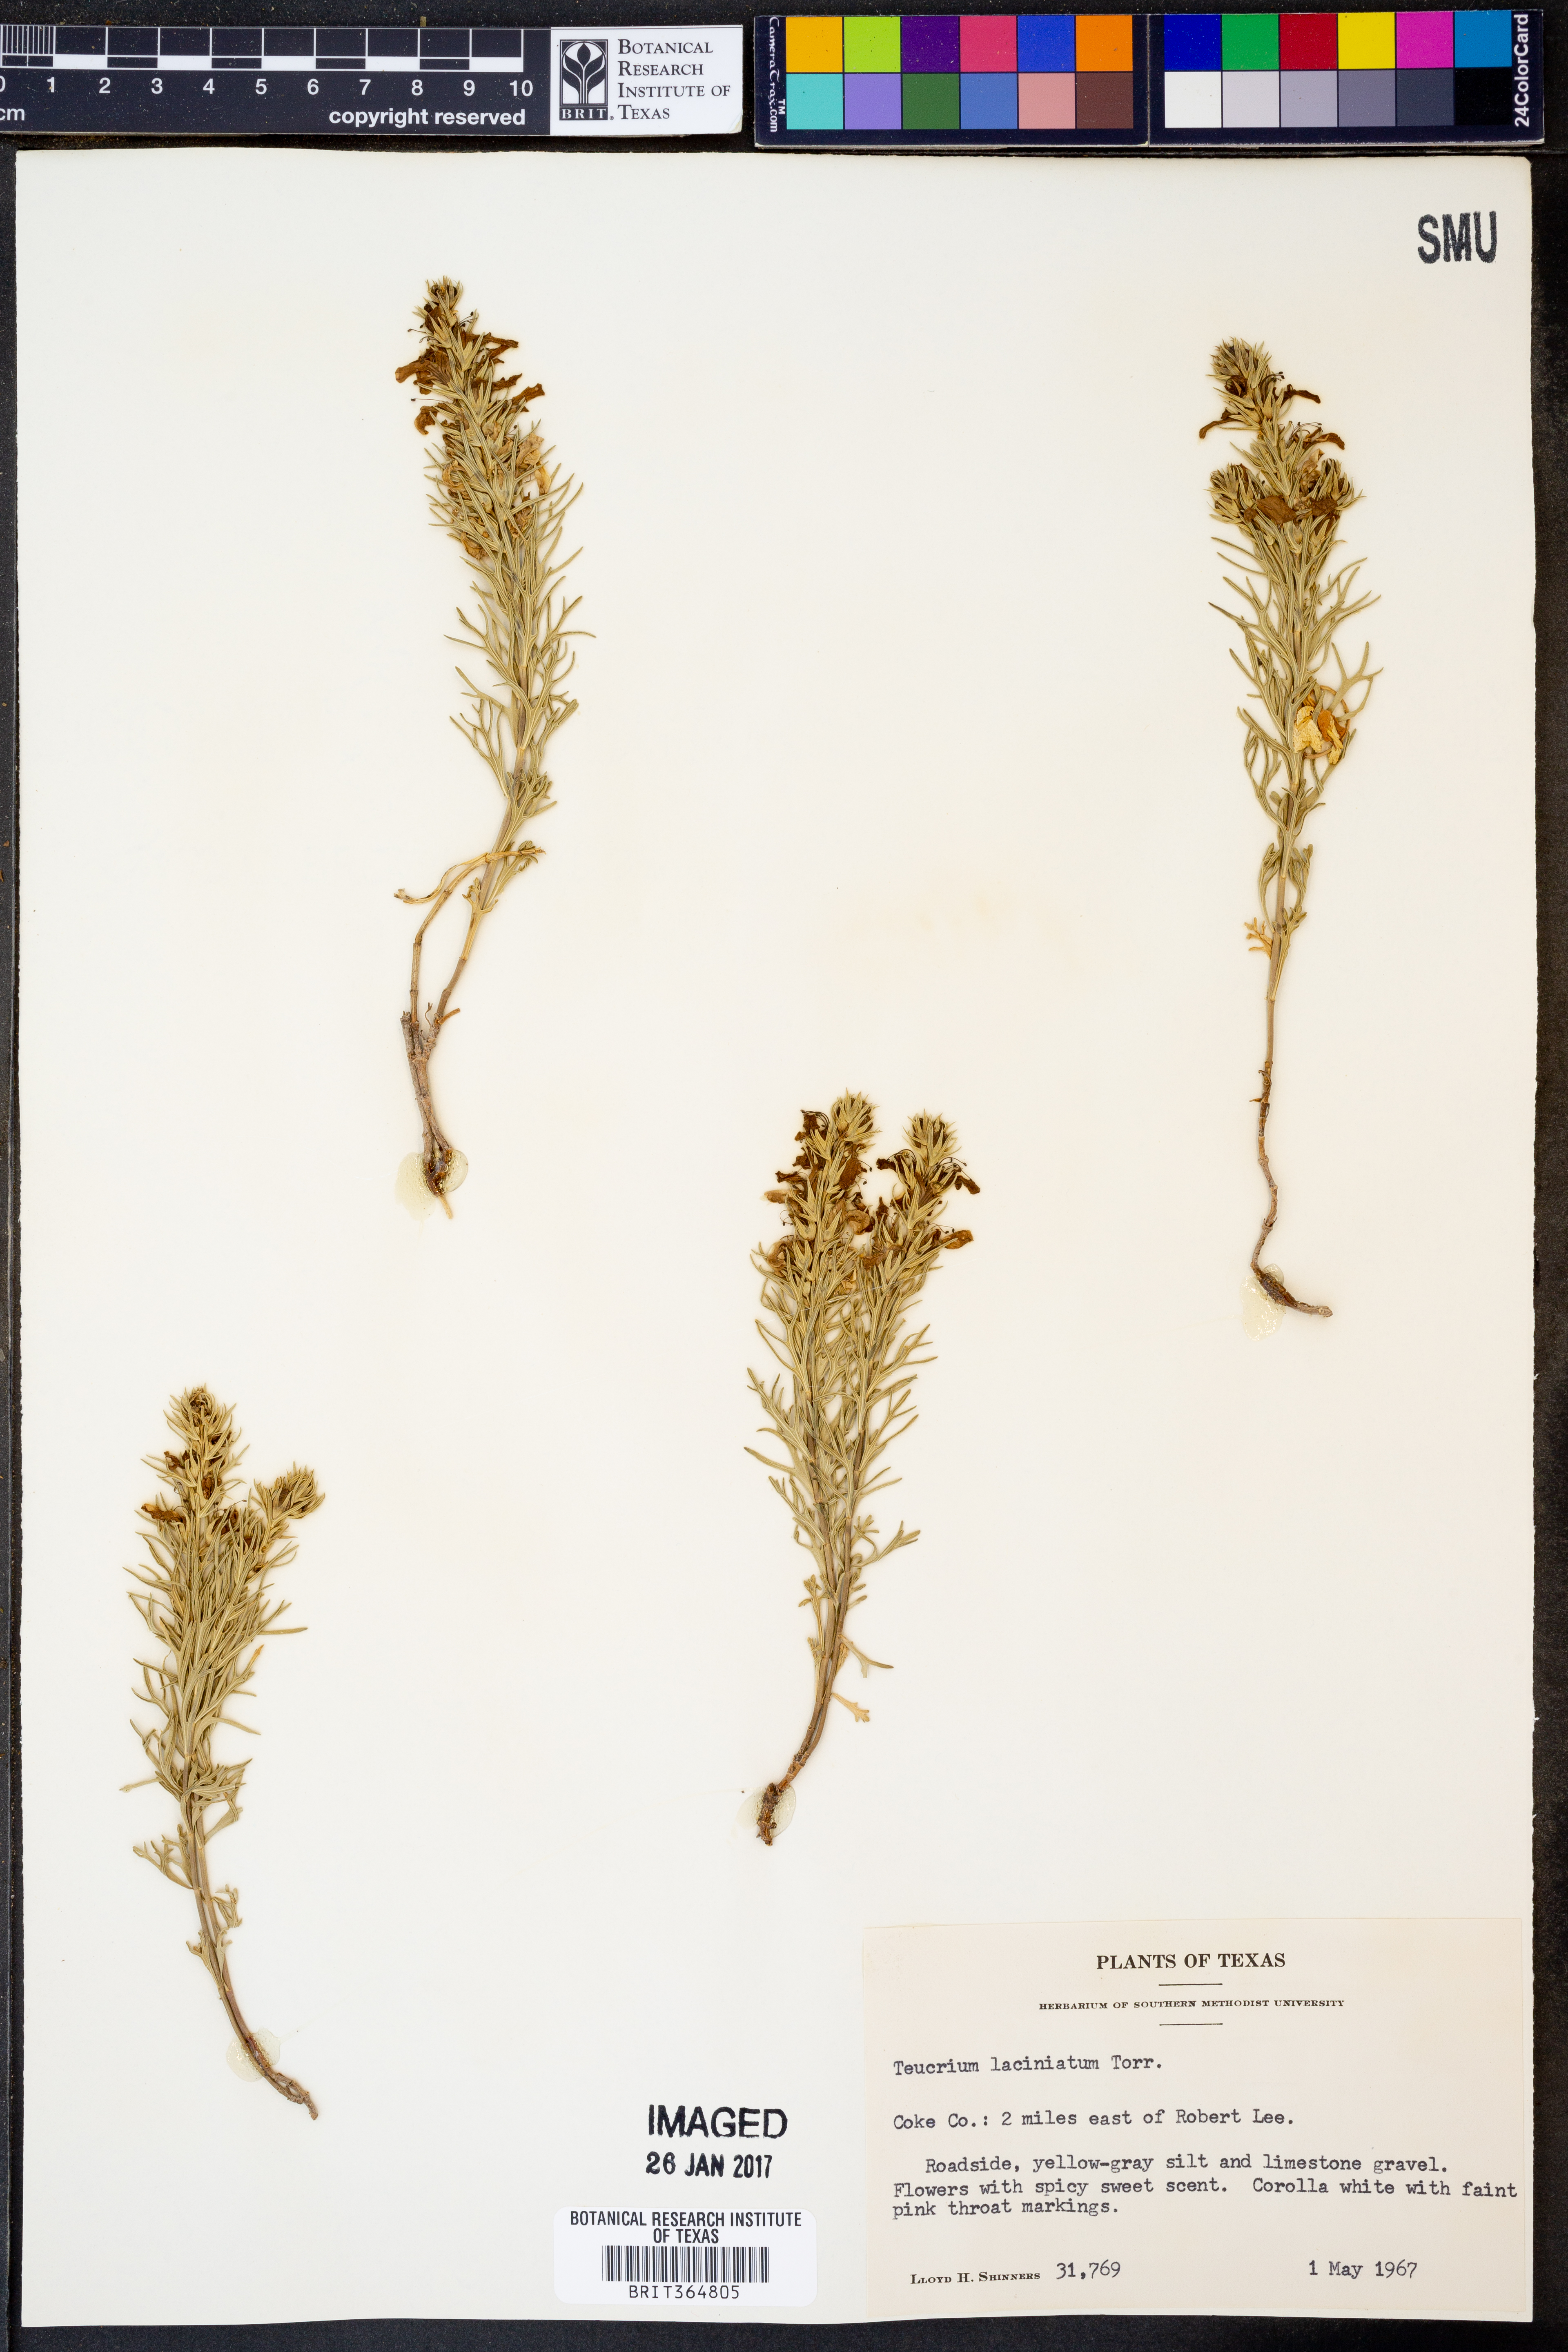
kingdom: Plantae
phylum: Tracheophyta
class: Magnoliopsida
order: Lamiales
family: Lamiaceae
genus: Teucrium
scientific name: Teucrium laciniatum
